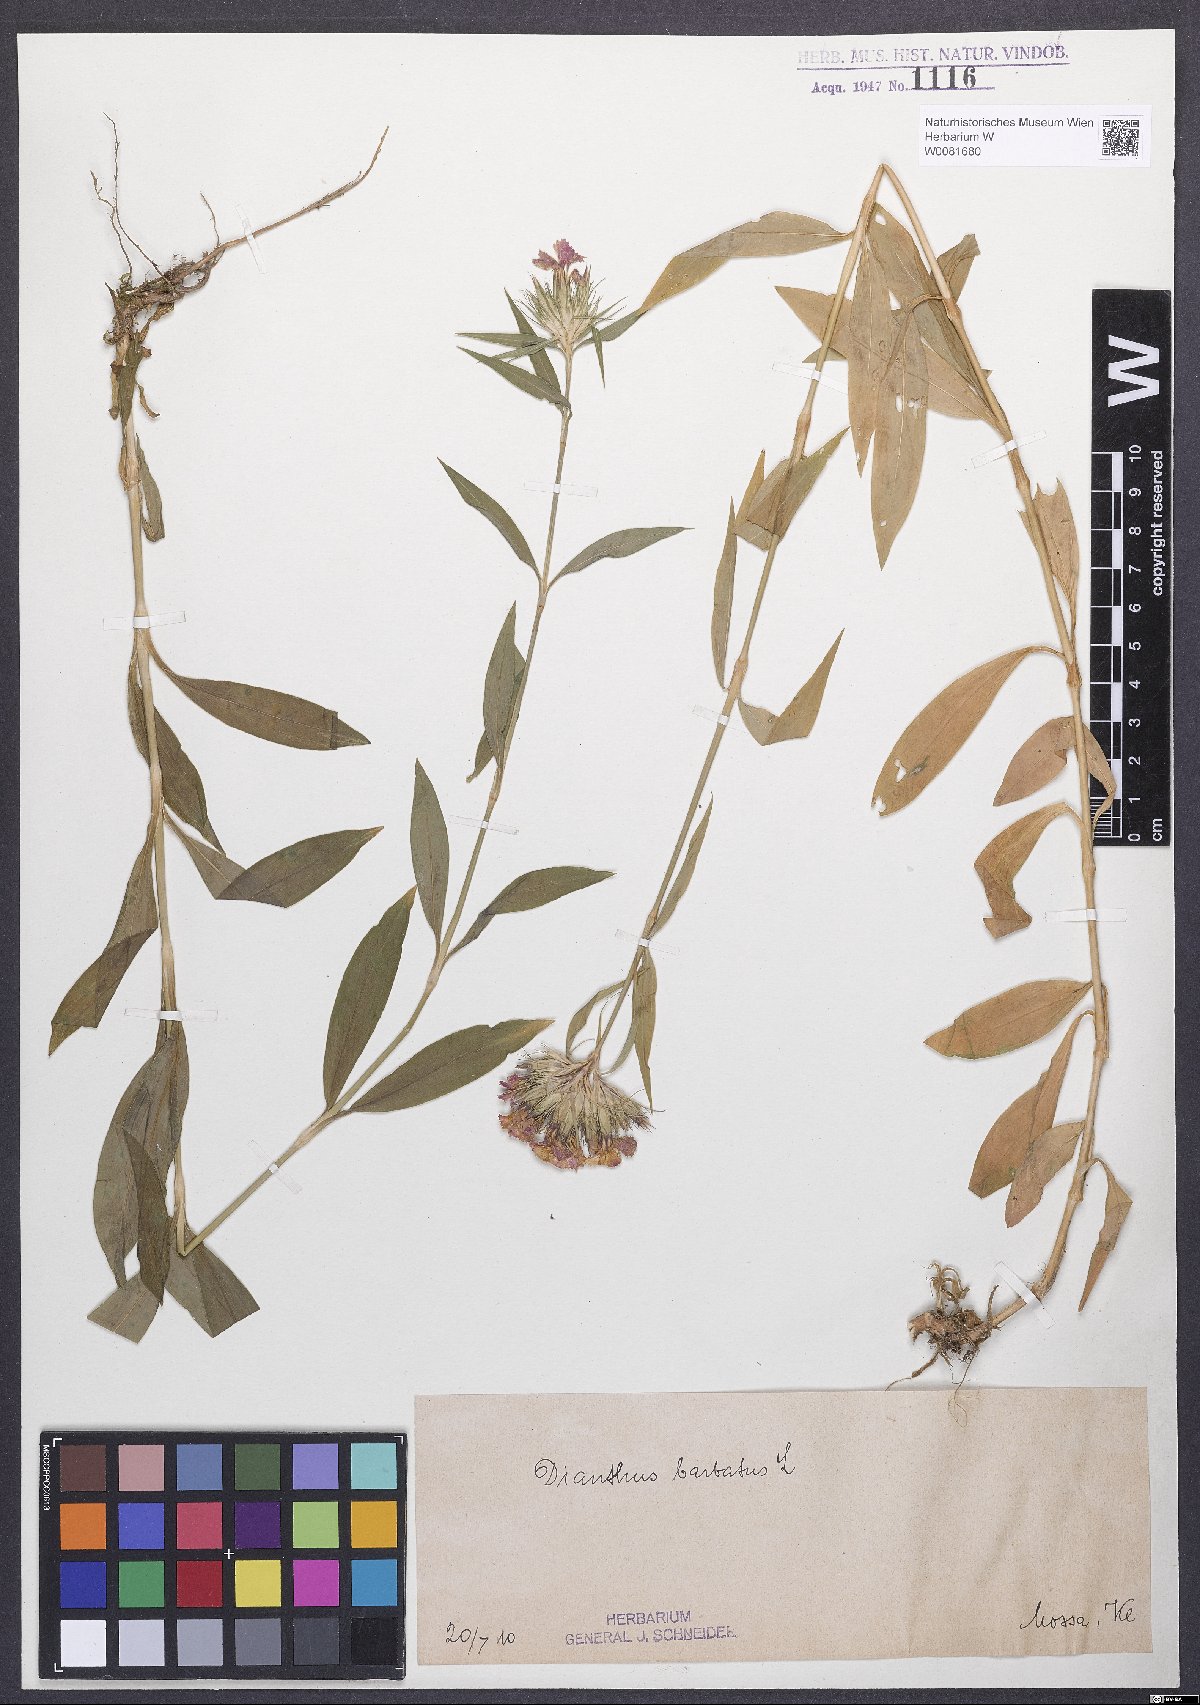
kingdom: Plantae
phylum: Tracheophyta
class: Magnoliopsida
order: Caryophyllales
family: Caryophyllaceae
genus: Dianthus
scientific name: Dianthus barbatus
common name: Sweet-william
